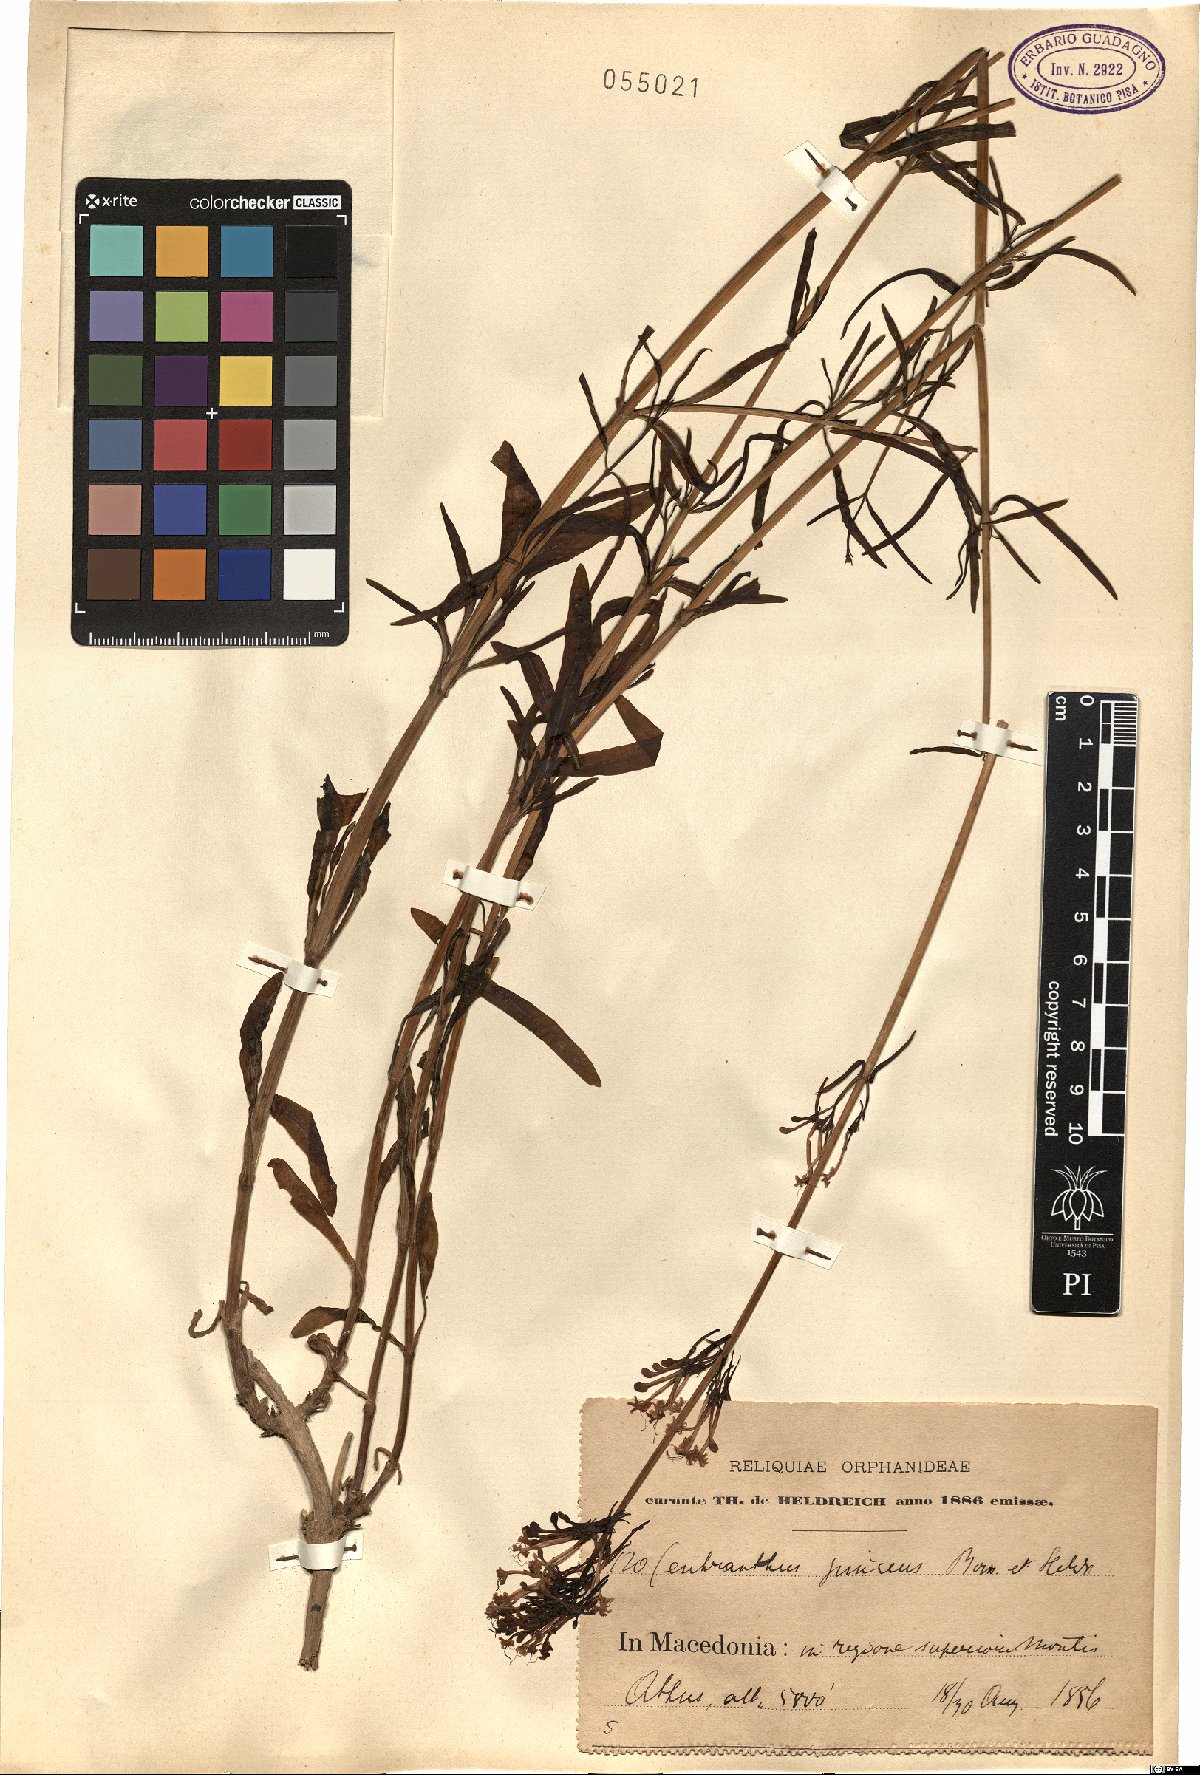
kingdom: Plantae
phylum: Tracheophyta
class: Magnoliopsida
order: Dipsacales
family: Caprifoliaceae
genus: Centranthus
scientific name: Centranthus longiflorus
